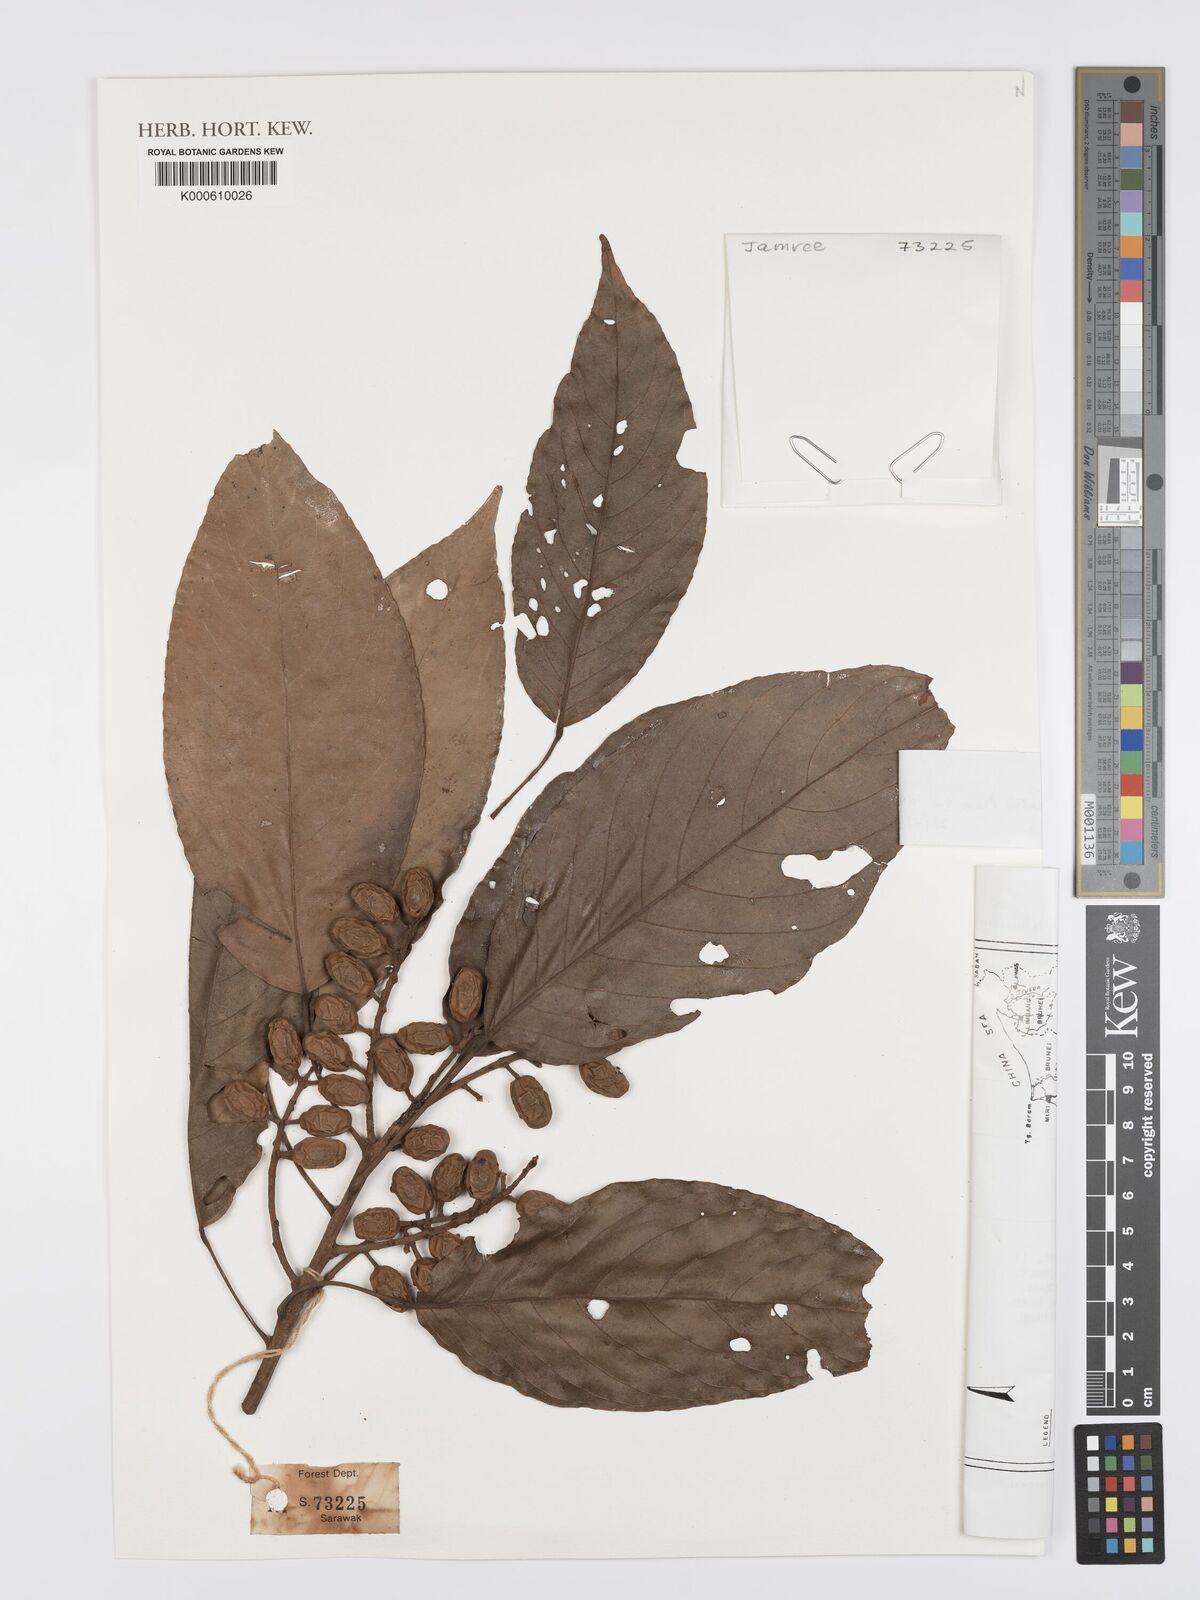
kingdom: Plantae
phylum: Tracheophyta
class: Magnoliopsida
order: Oxalidales
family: Elaeocarpaceae
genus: Elaeocarpus
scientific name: Elaeocarpus clementis
